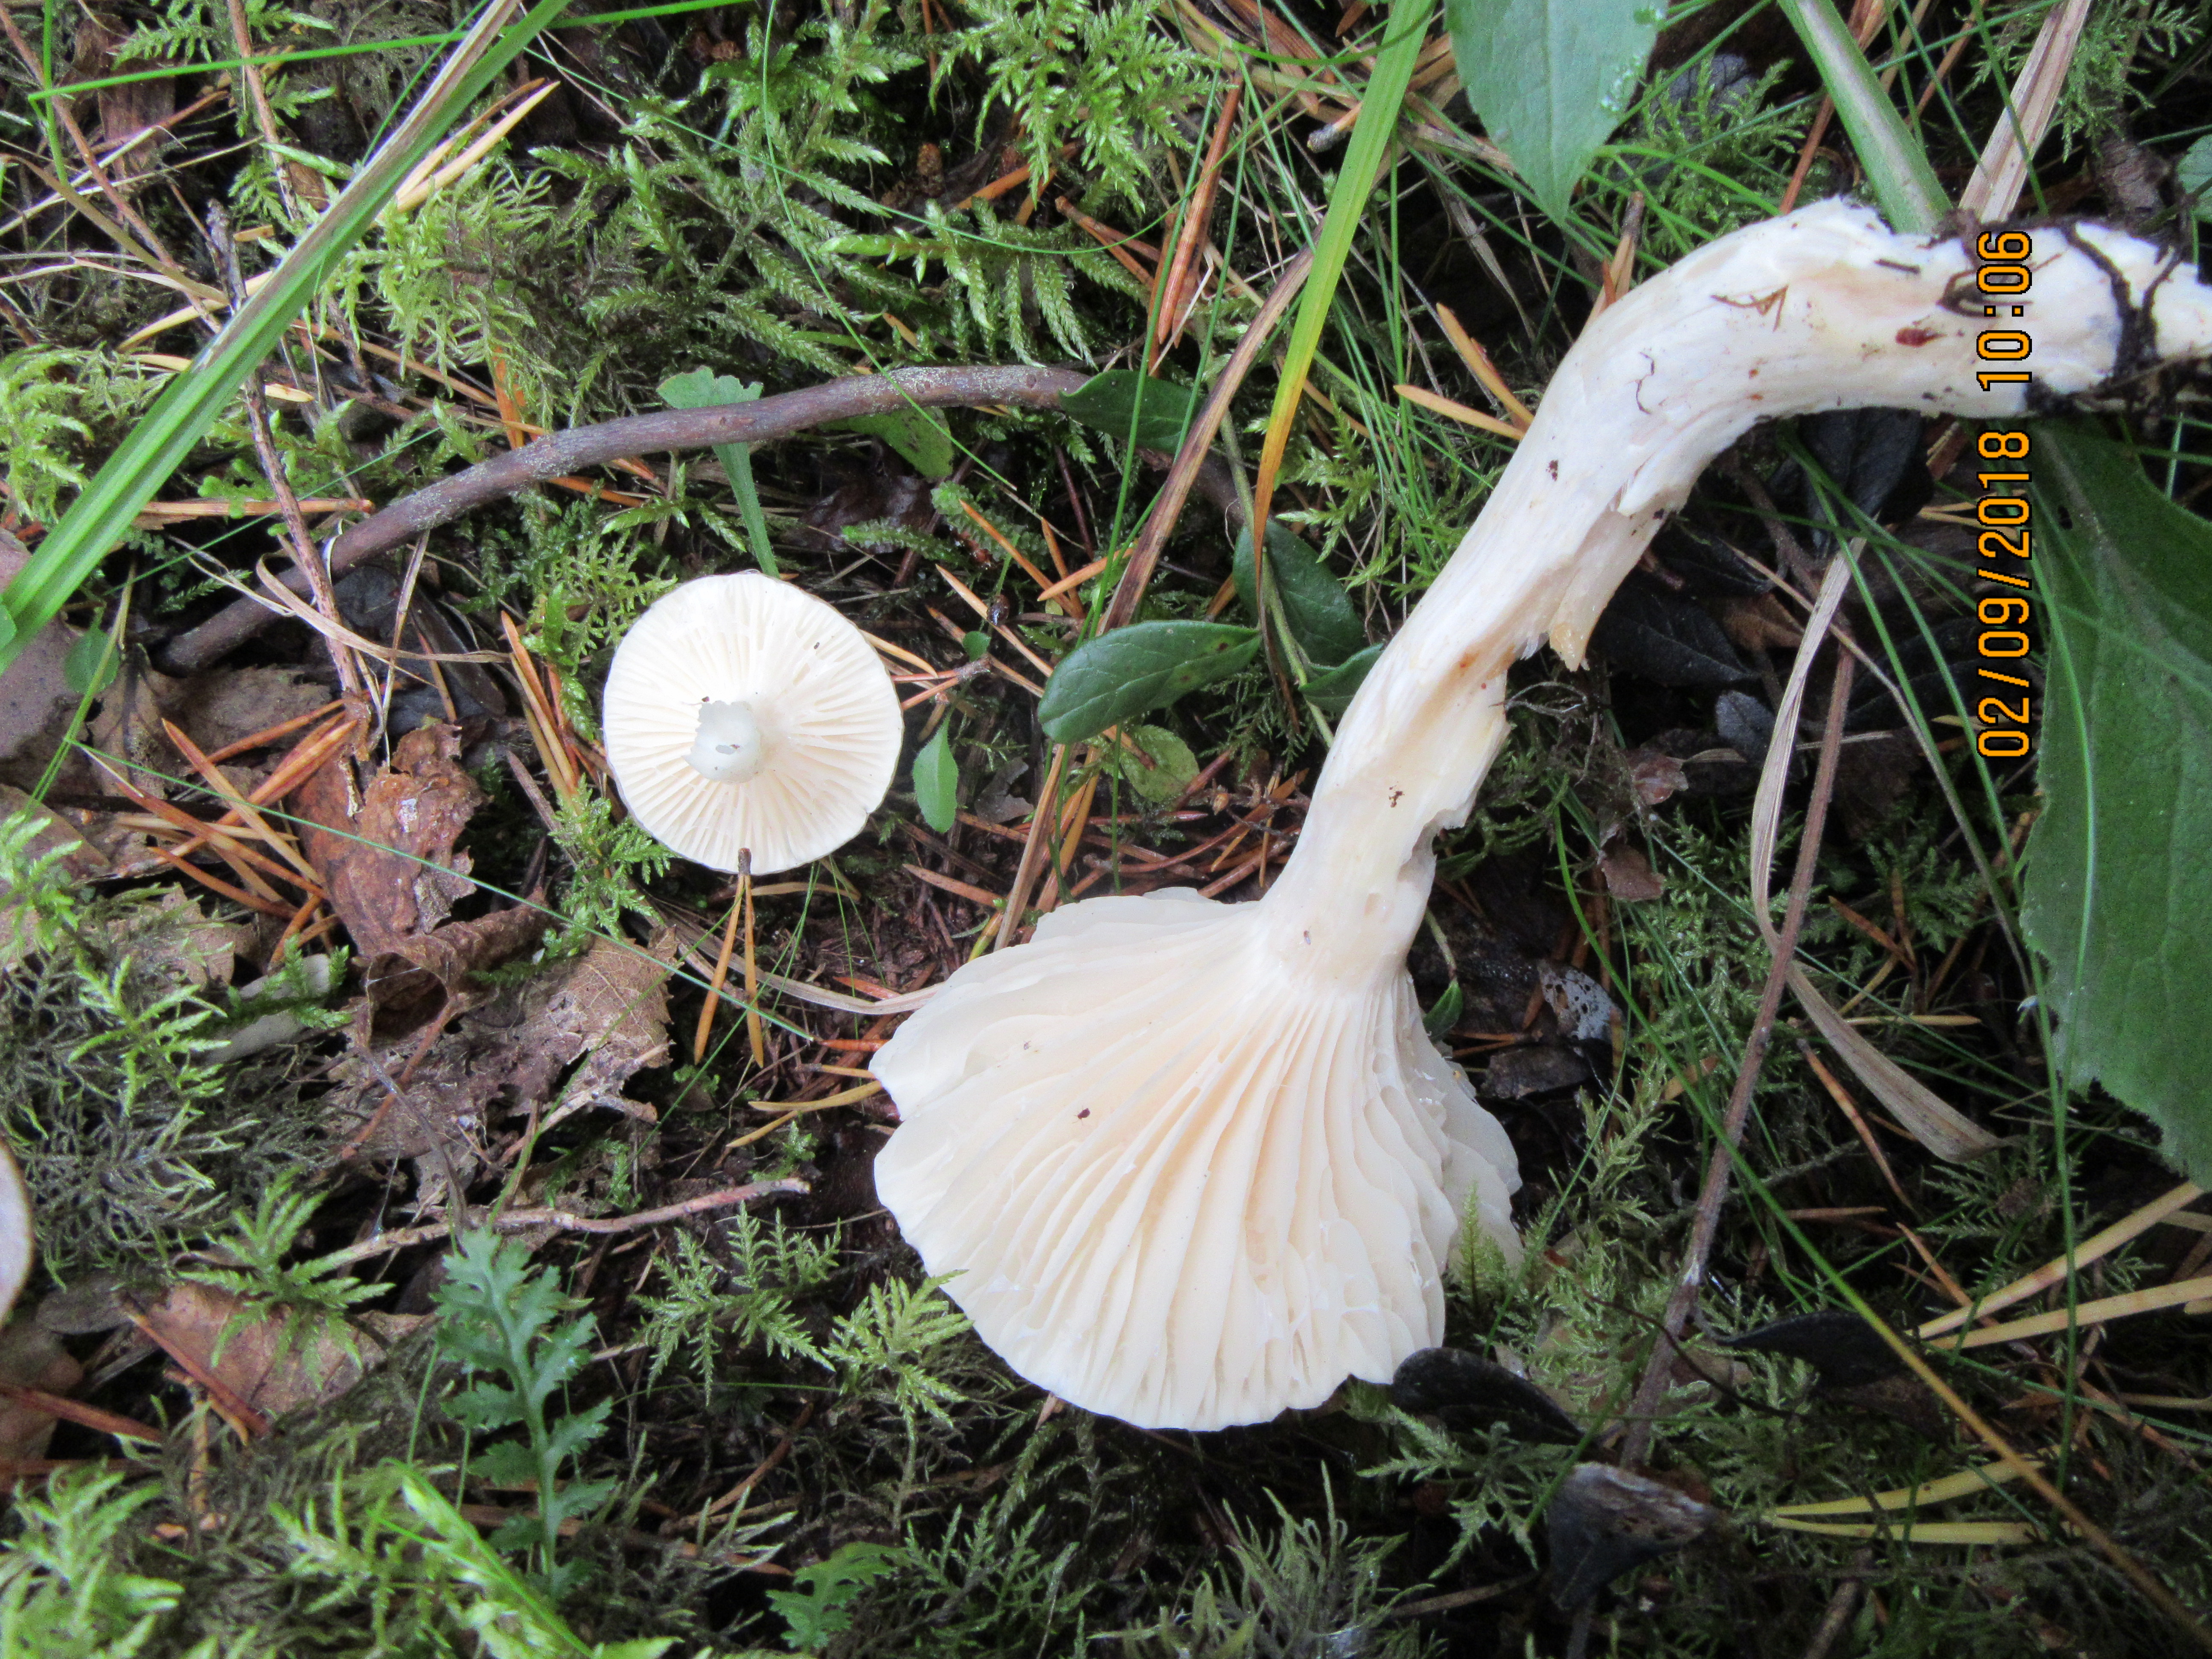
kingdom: Fungi
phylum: Basidiomycota
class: Agaricomycetes
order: Agaricales
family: Hygrophoraceae
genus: Hygrophorus
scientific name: Hygrophorus ligatus
